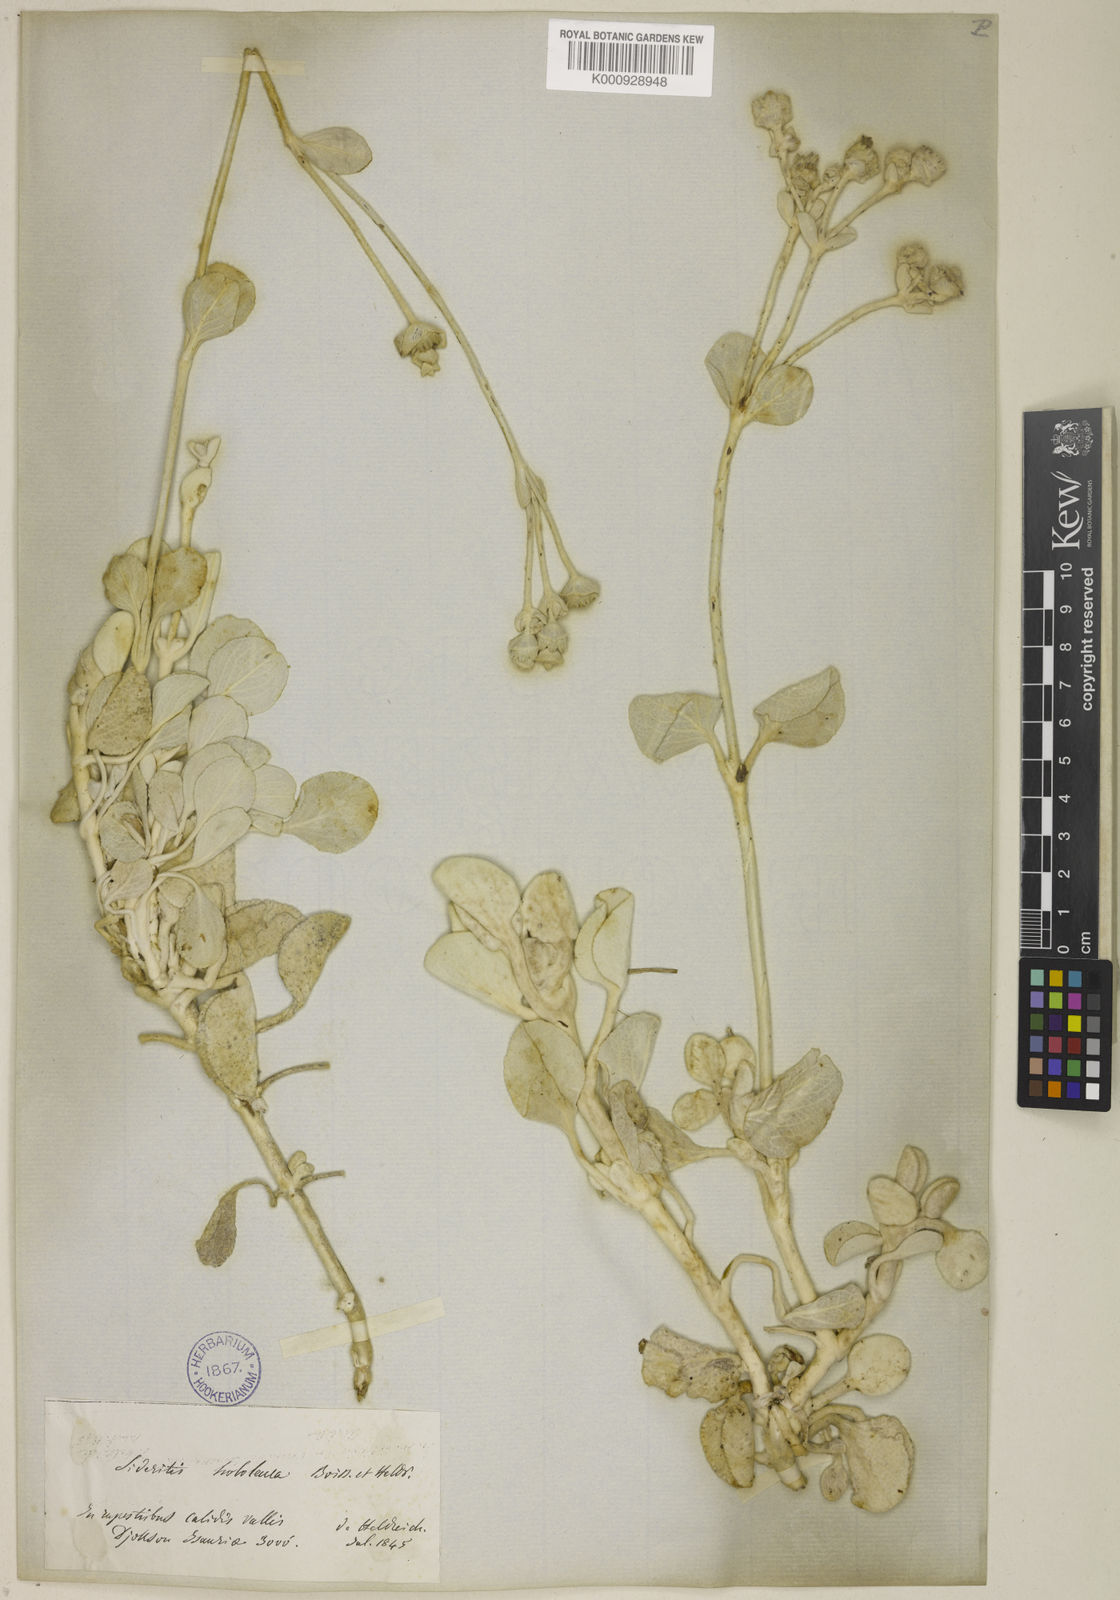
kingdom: Plantae
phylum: Tracheophyta
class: Magnoliopsida
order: Lamiales
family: Lamiaceae
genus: Sideritis
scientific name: Sideritis hololeuca
